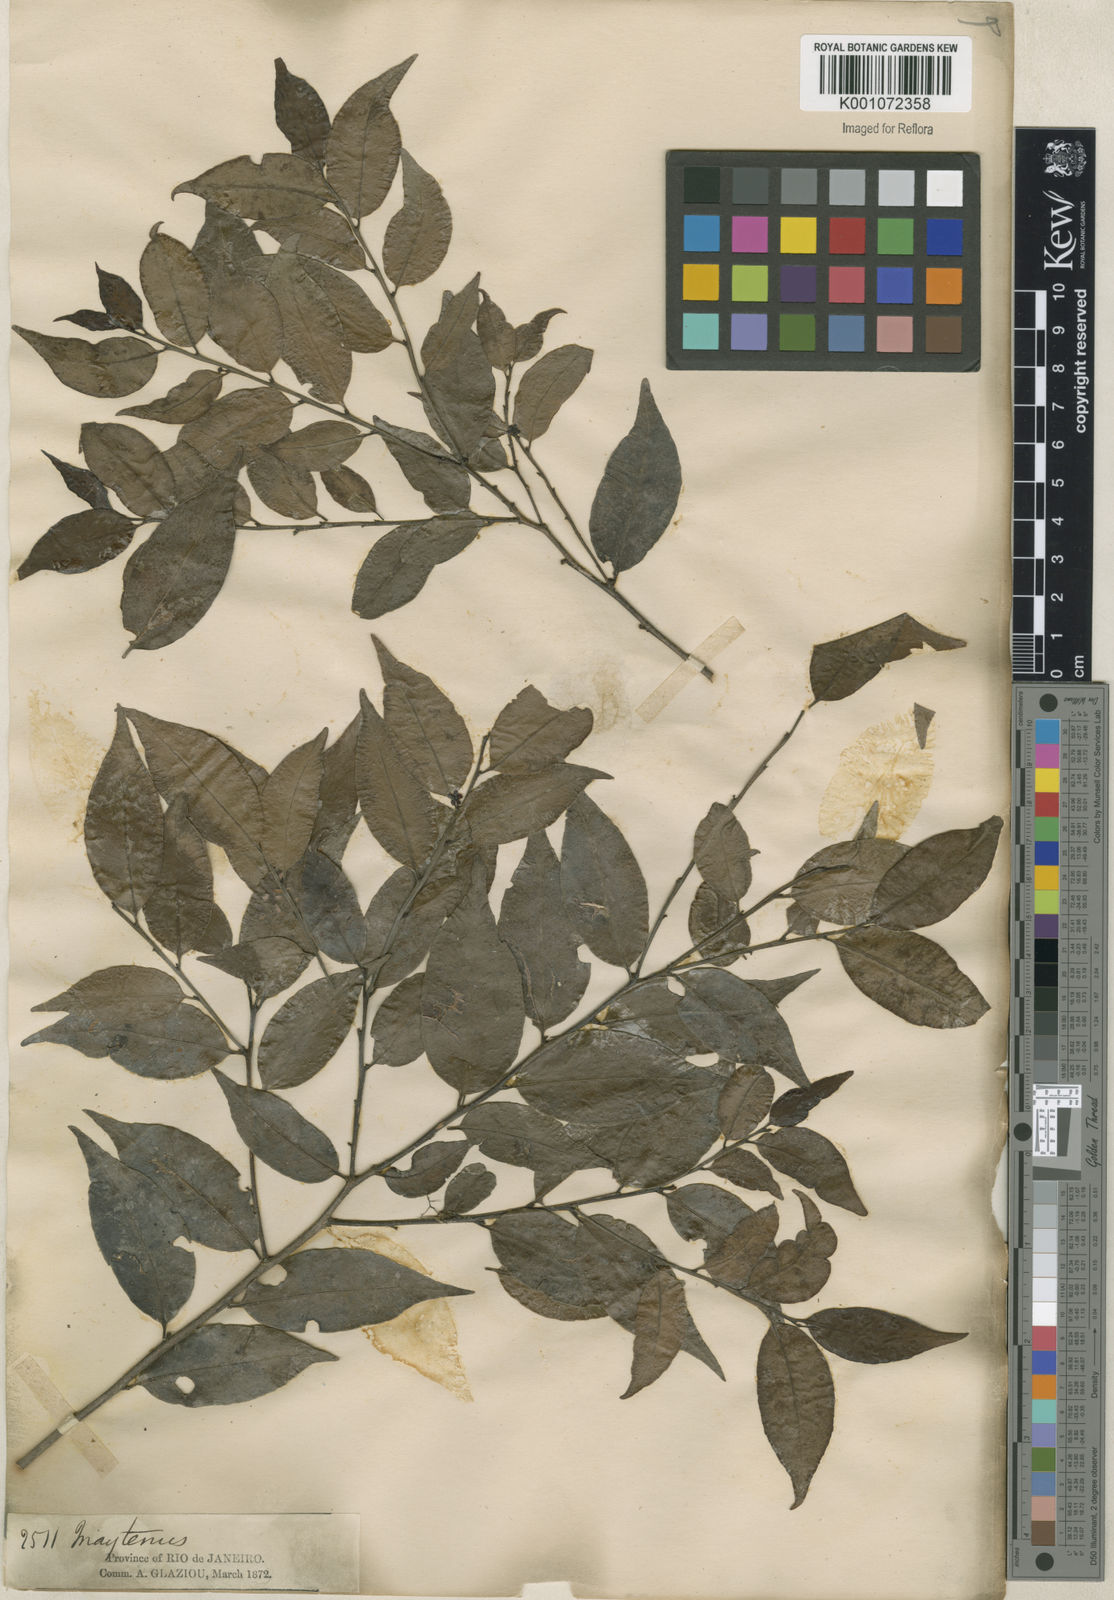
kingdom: Plantae
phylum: Tracheophyta
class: Magnoliopsida
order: Celastrales
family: Celastraceae
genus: Maytenus
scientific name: Maytenus
